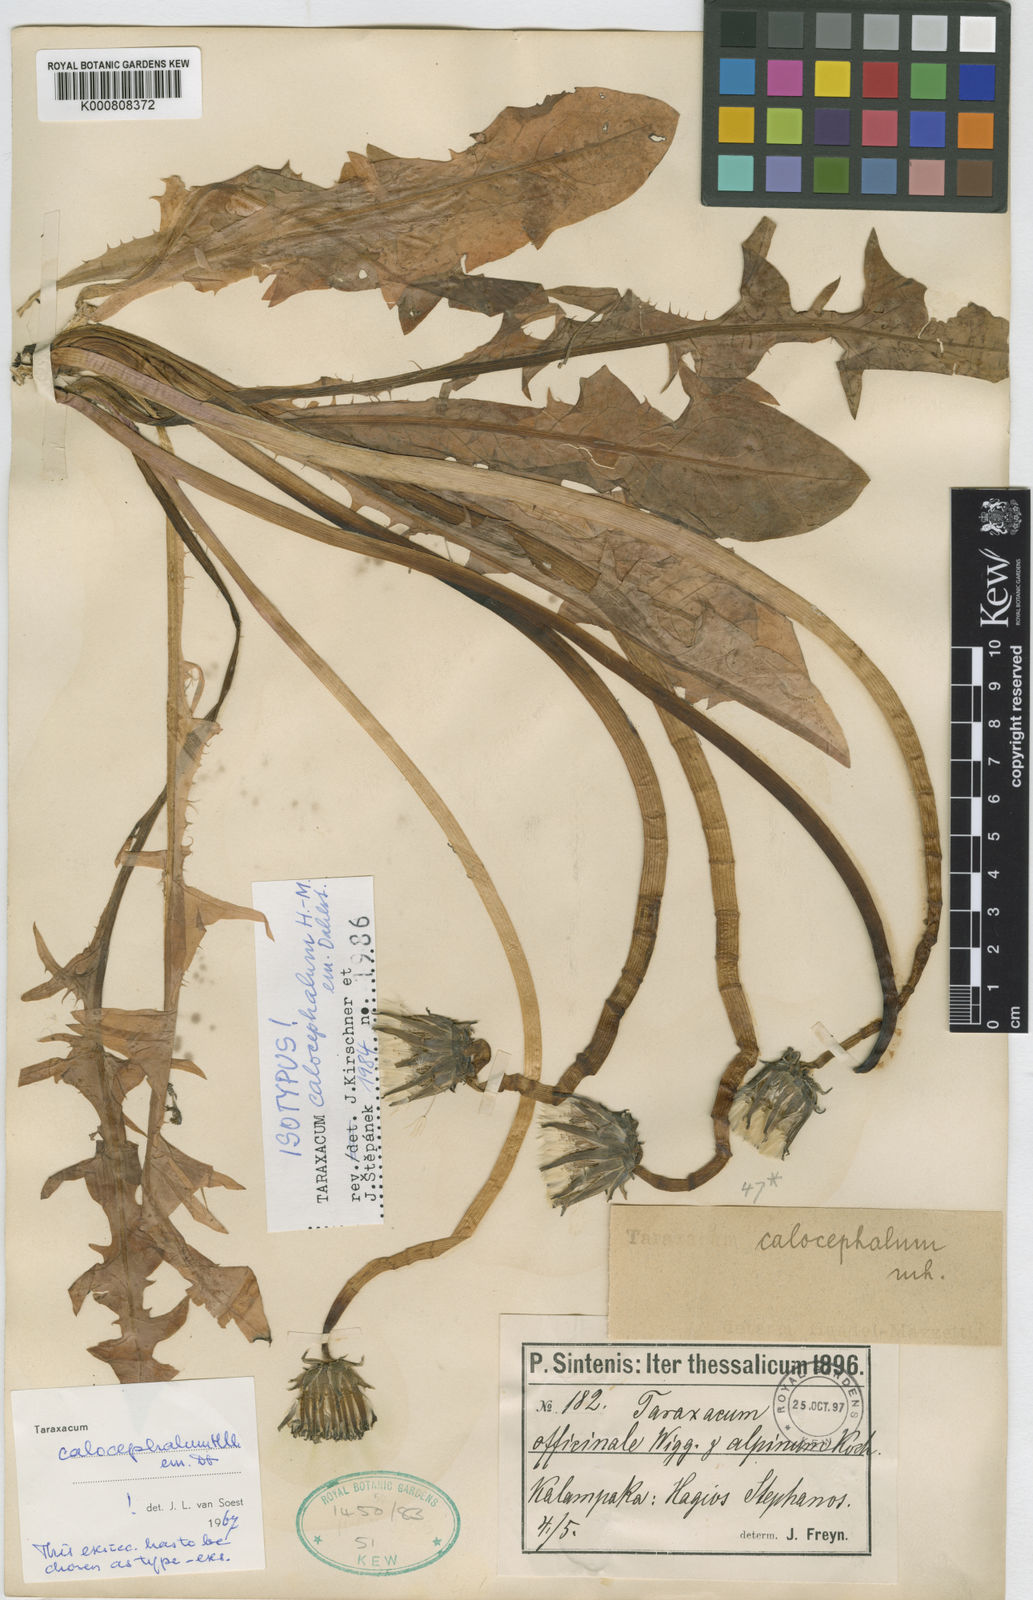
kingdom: Plantae
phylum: Tracheophyta
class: Magnoliopsida
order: Asterales
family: Asteraceae
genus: Taraxacum
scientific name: Taraxacum calocephalum
